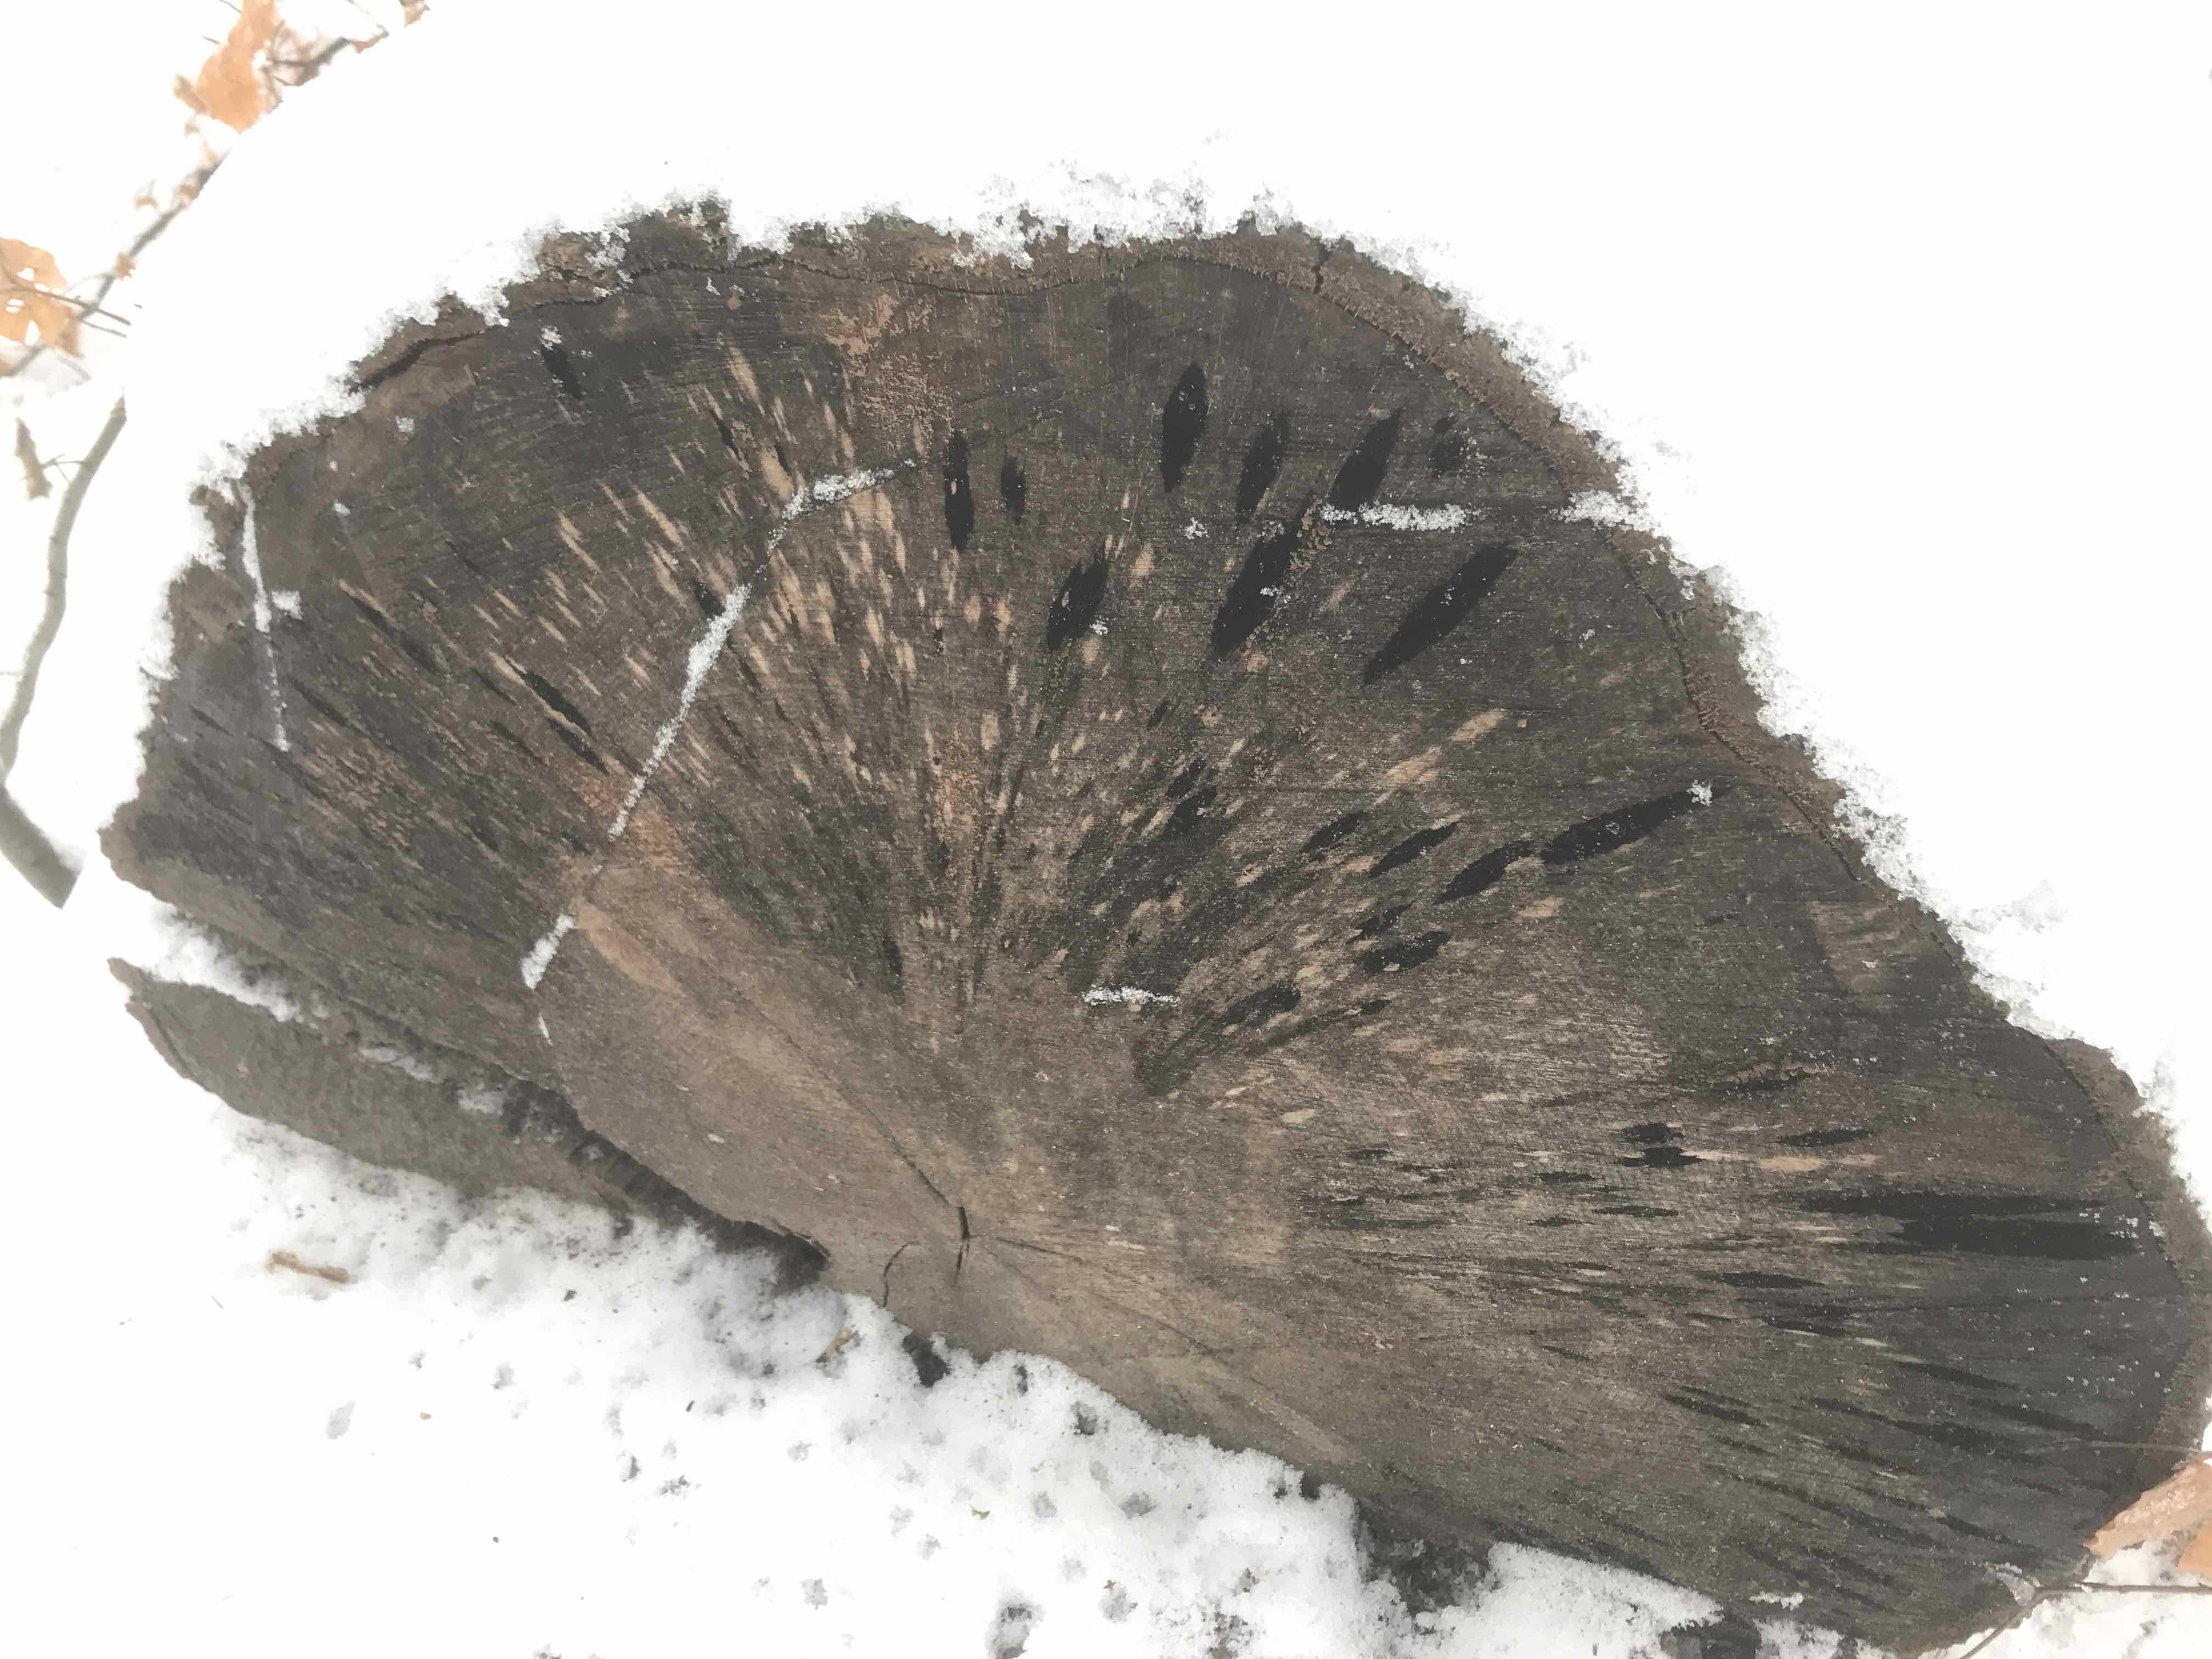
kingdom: Fungi
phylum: Ascomycota
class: Leotiomycetes
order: Helotiales
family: Helotiaceae
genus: Bispora
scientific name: Bispora pallescens
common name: måtte-snitskive
